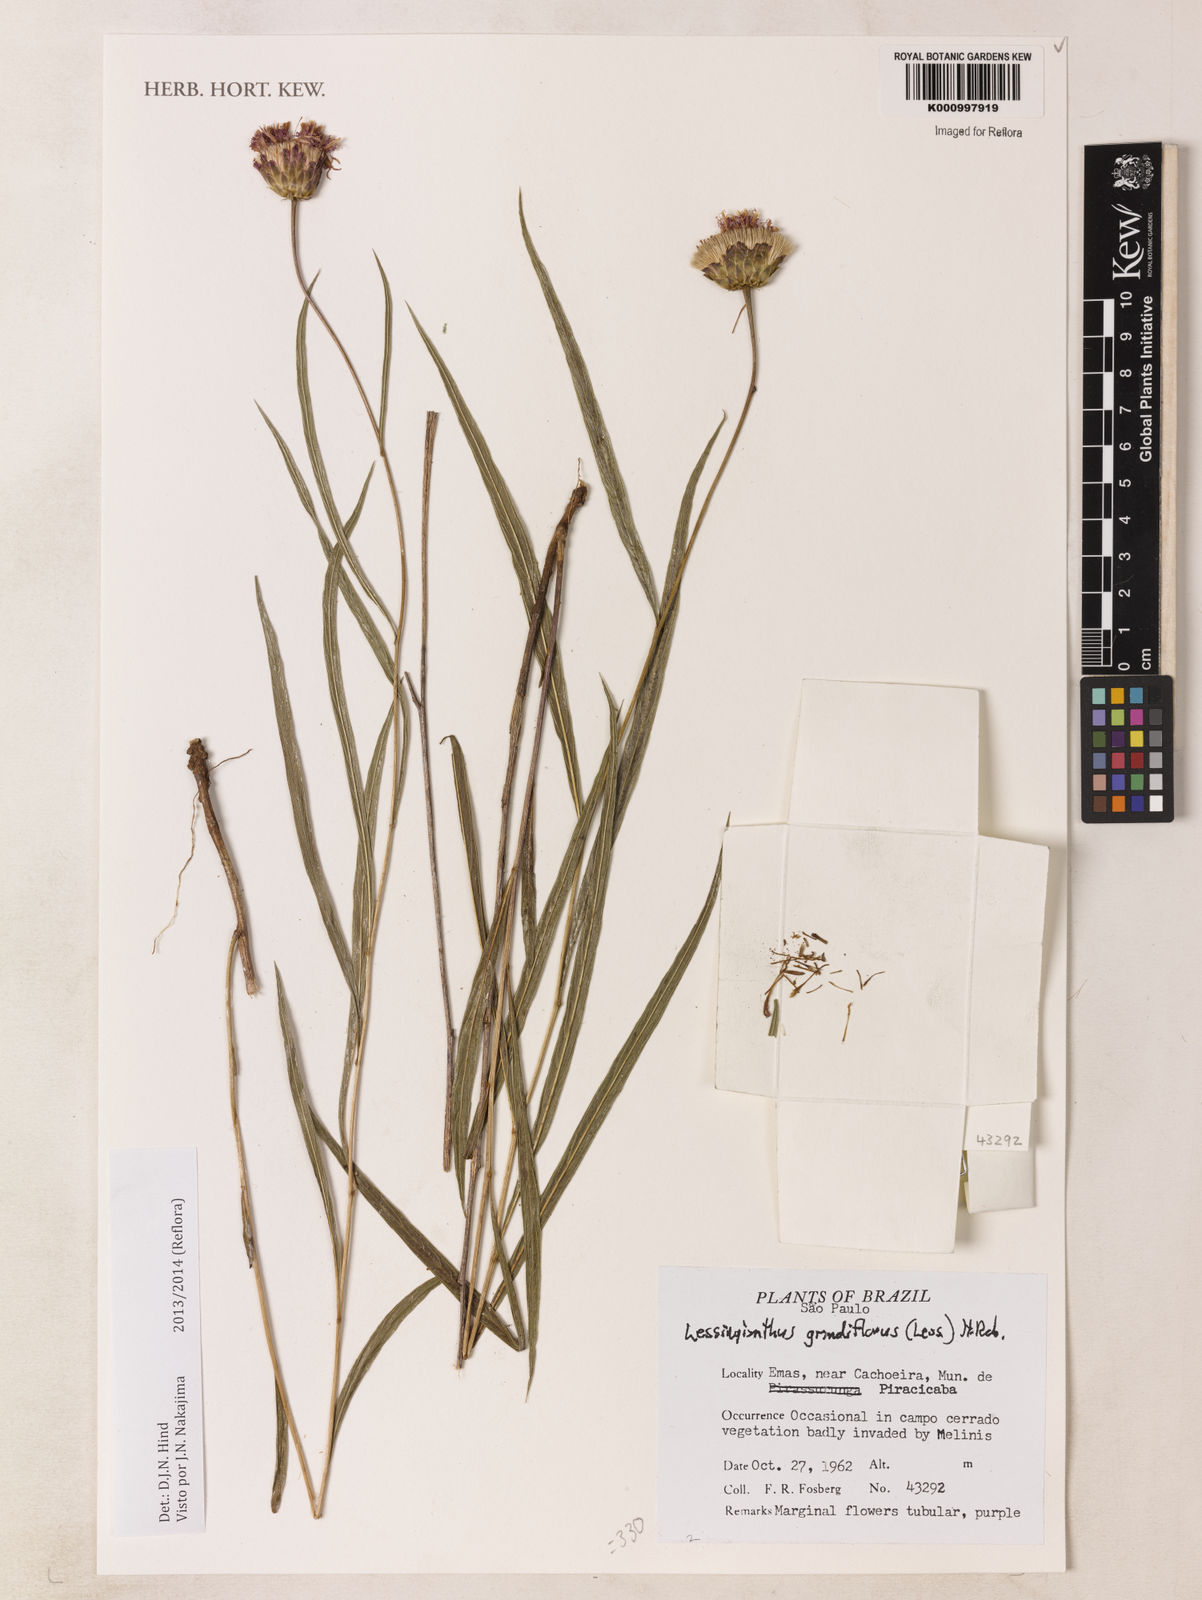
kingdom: Plantae
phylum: Tracheophyta
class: Magnoliopsida
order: Asterales
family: Asteraceae
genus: Lessingianthus
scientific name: Lessingianthus grandiflorus
